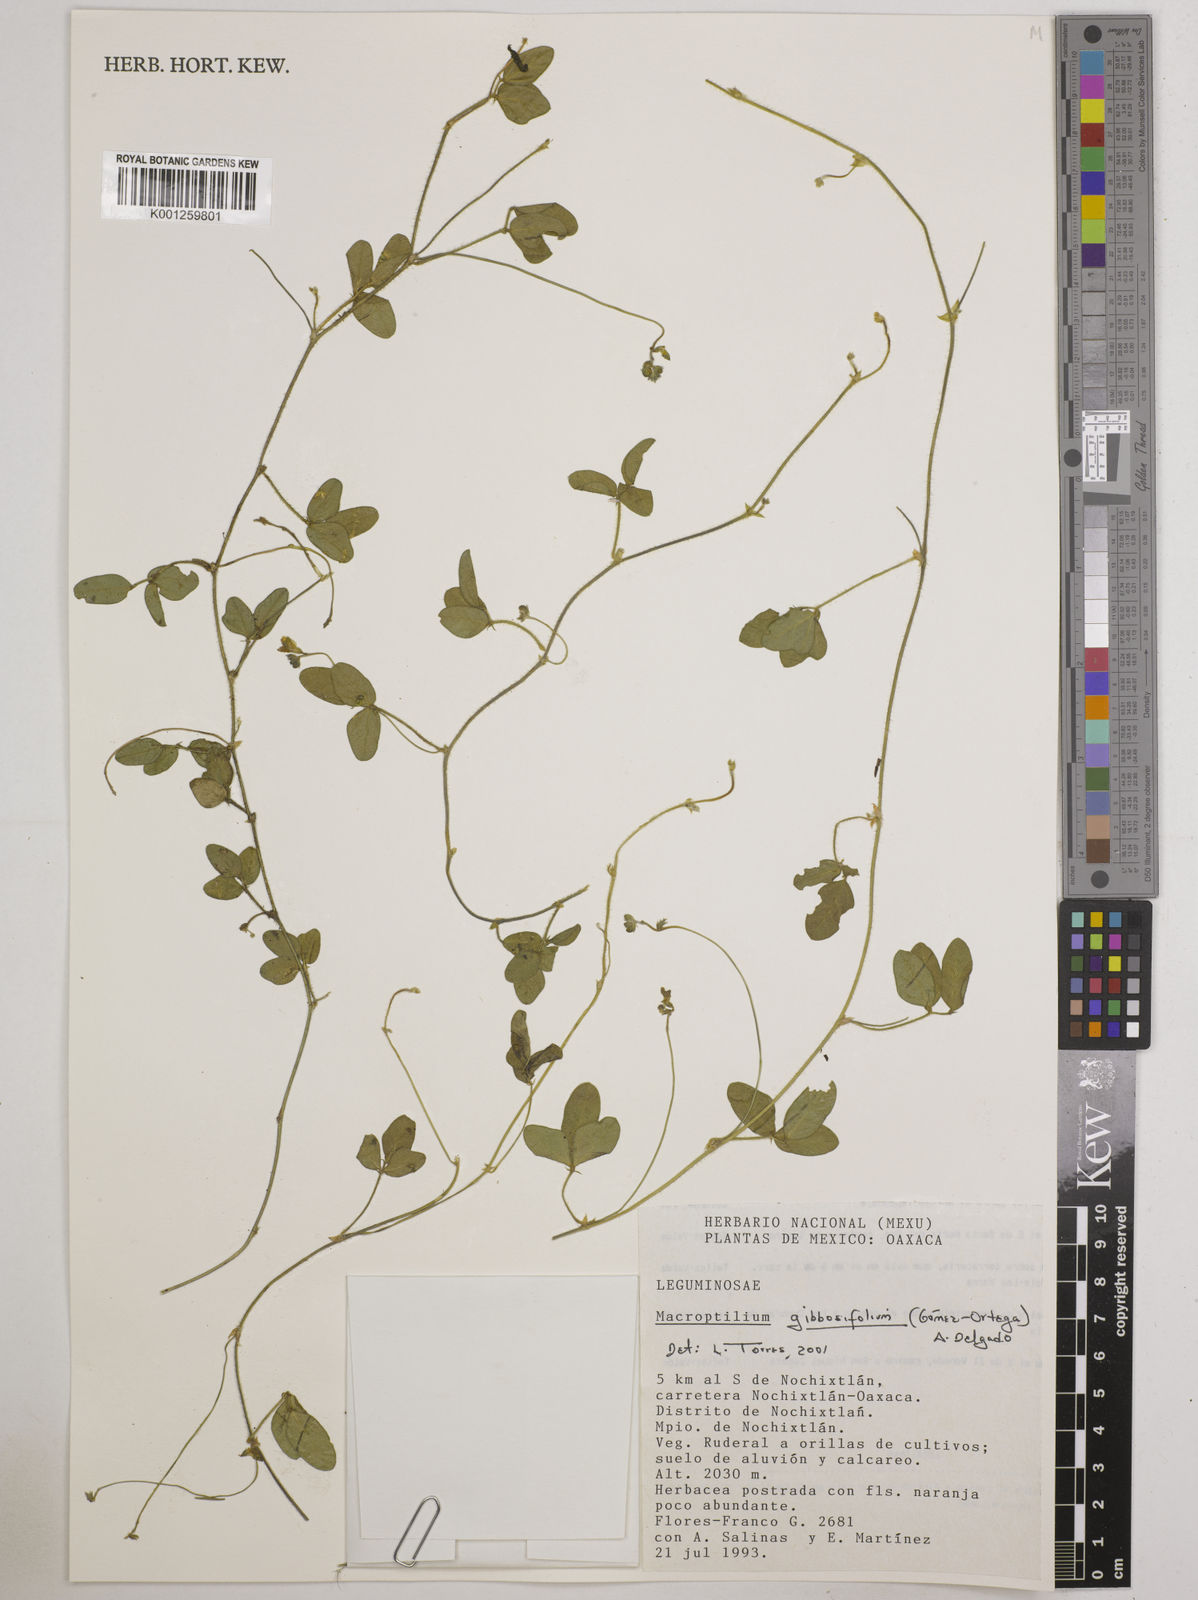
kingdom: Plantae
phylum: Tracheophyta
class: Magnoliopsida
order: Fabales
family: Fabaceae
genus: Macroptilium
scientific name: Macroptilium gibbosifolium
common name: Variableleaf bushbean
